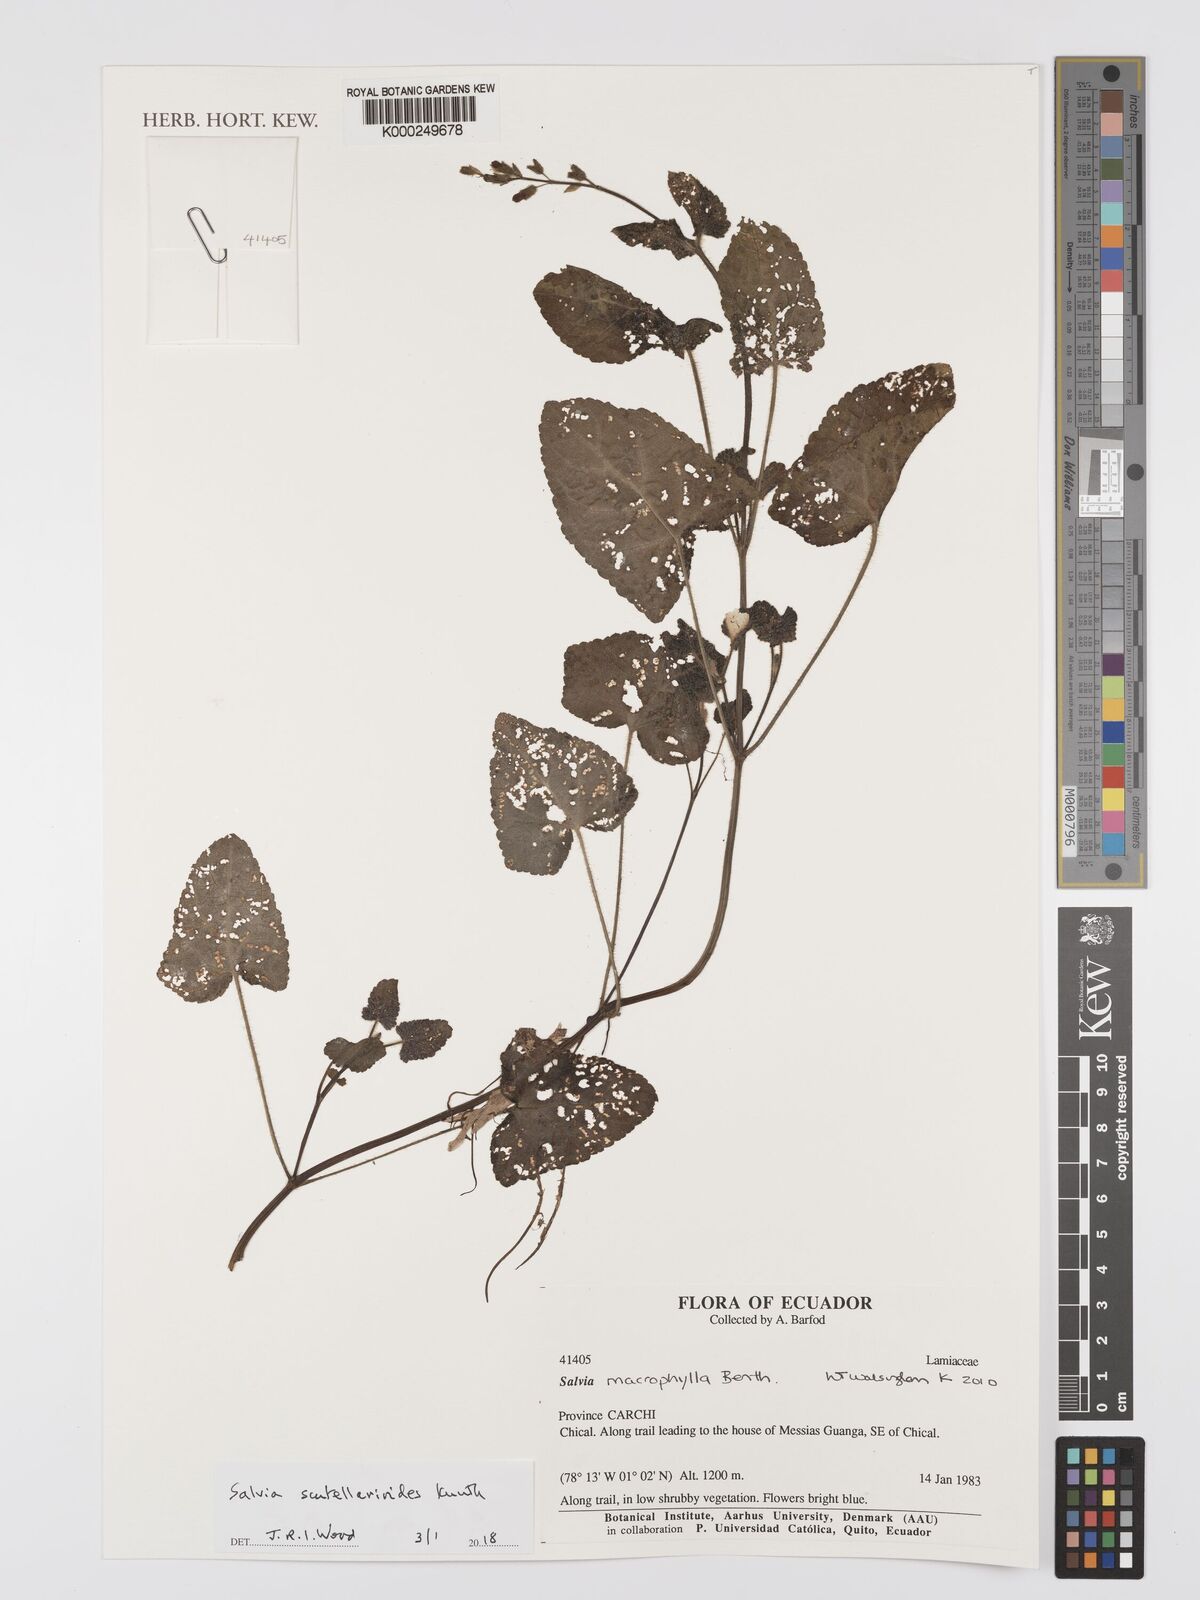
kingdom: Plantae
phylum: Tracheophyta
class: Magnoliopsida
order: Lamiales
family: Lamiaceae
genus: Salvia
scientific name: Salvia
